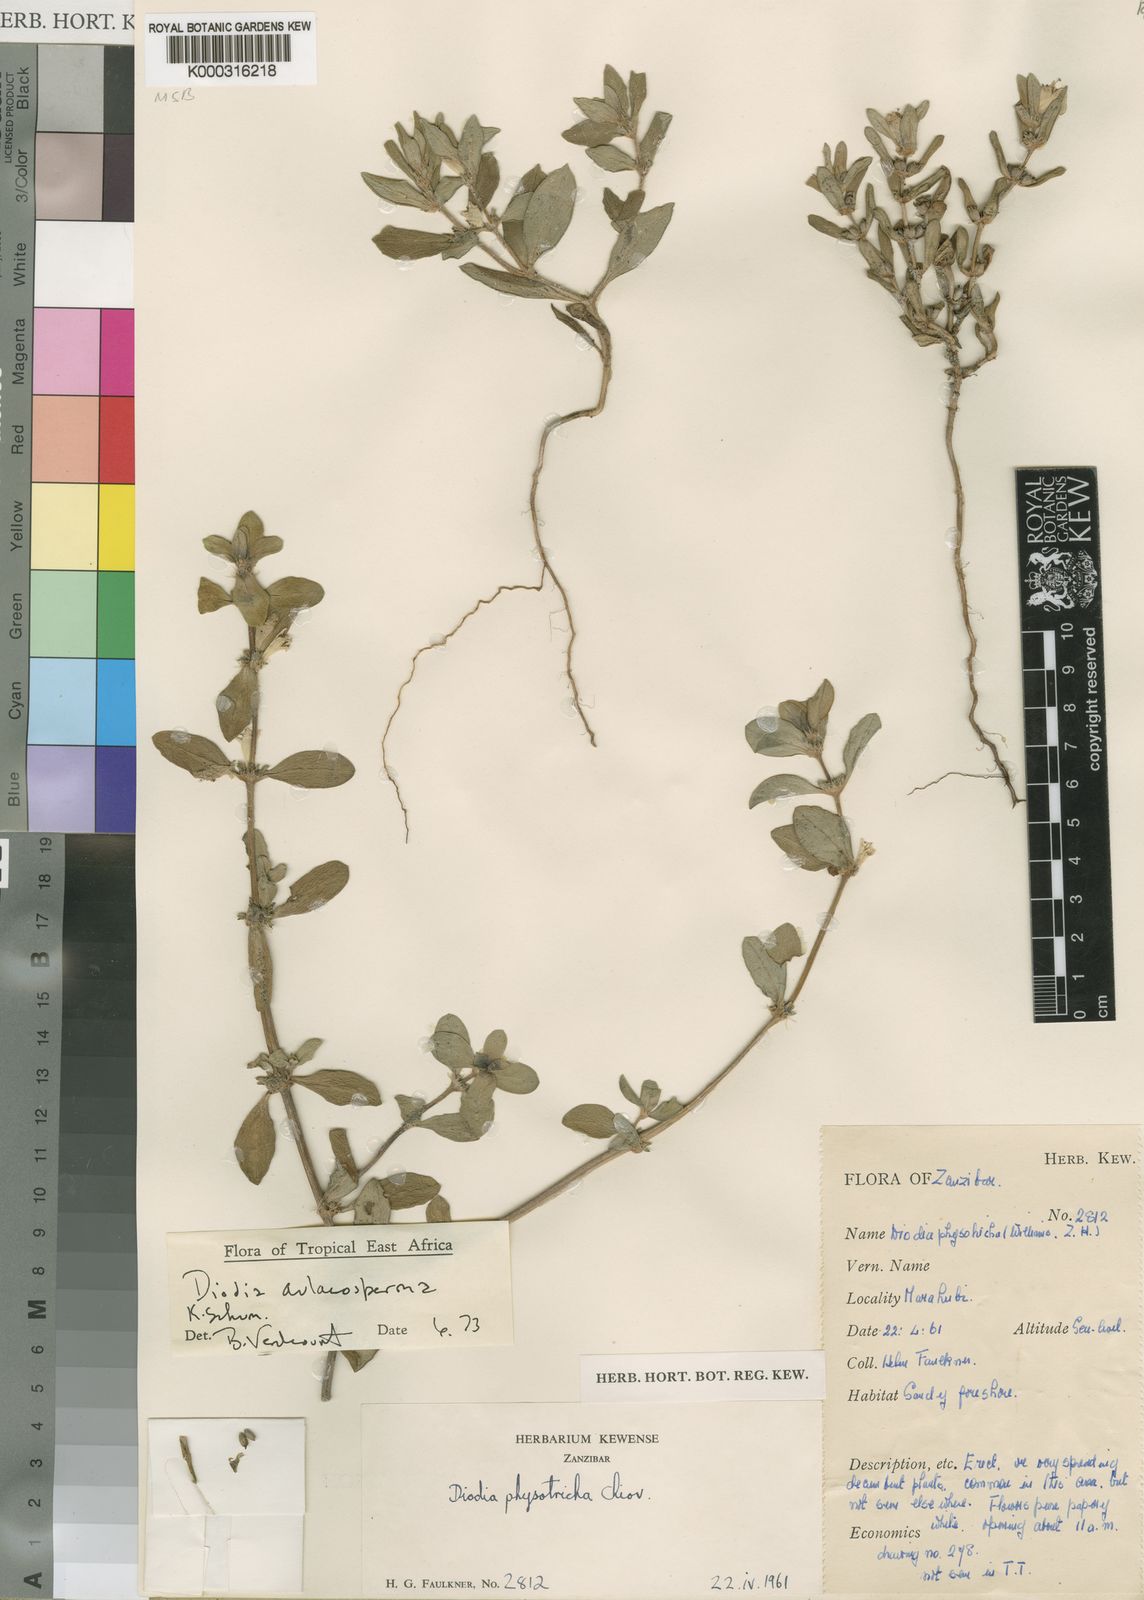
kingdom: Plantae
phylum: Tracheophyta
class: Magnoliopsida
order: Gentianales
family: Rubiaceae
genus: Diodia
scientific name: Diodia aulacosperma
